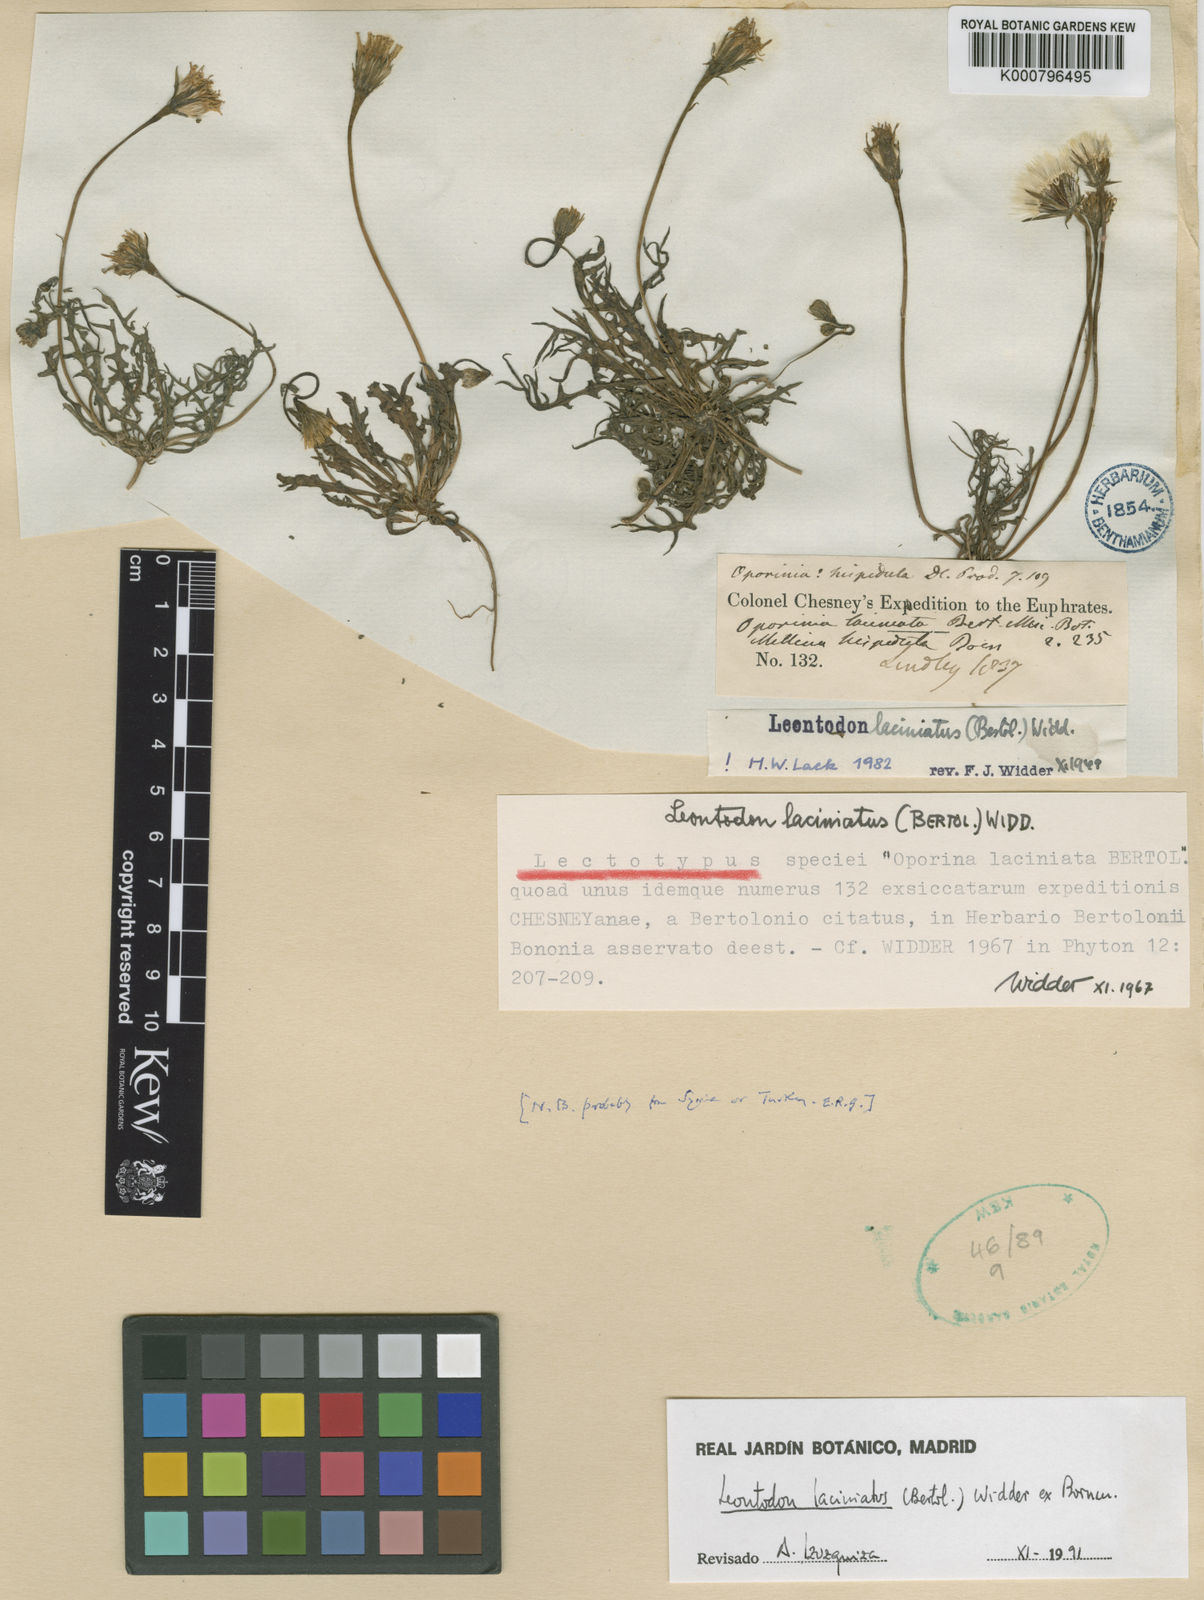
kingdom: Plantae
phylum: Tracheophyta
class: Magnoliopsida
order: Asterales
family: Asteraceae
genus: Scorzoneroides
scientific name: Scorzoneroides hispidula
